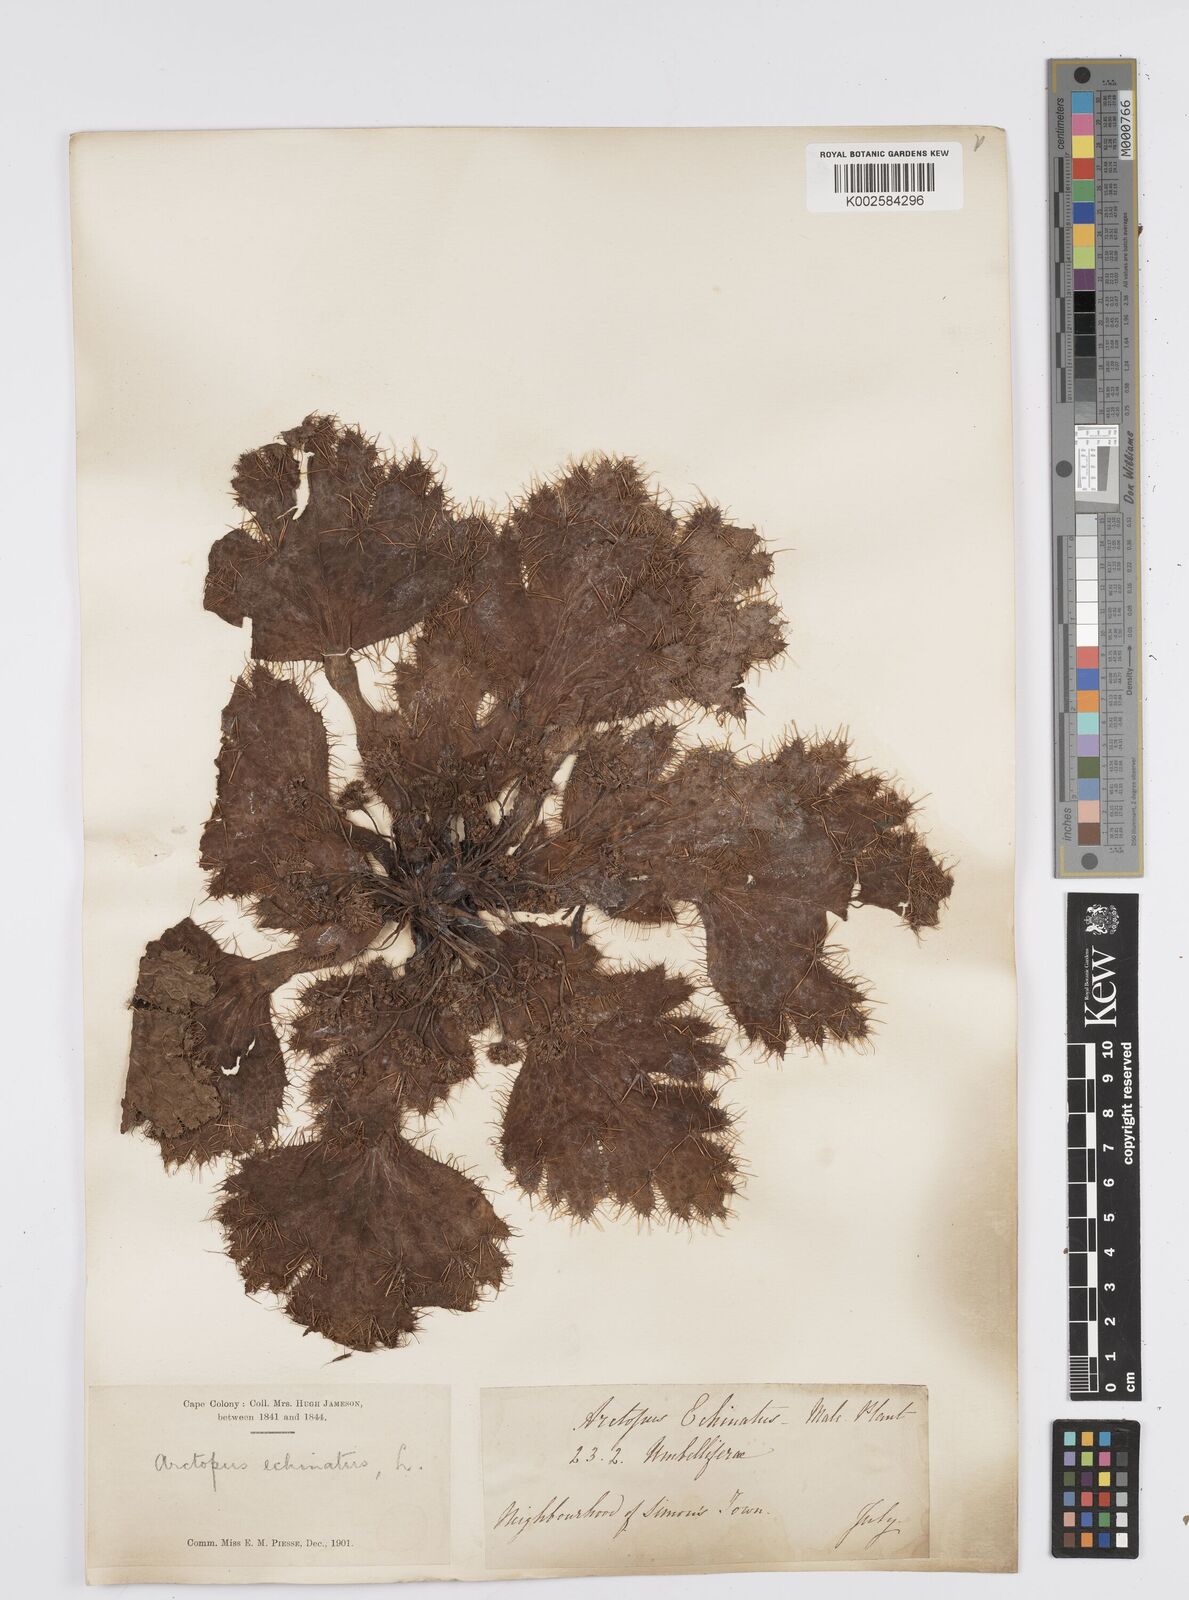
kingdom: Plantae
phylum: Tracheophyta
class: Magnoliopsida
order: Apiales
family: Apiaceae
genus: Arctopus
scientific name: Arctopus echinatus
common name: Platdoring
